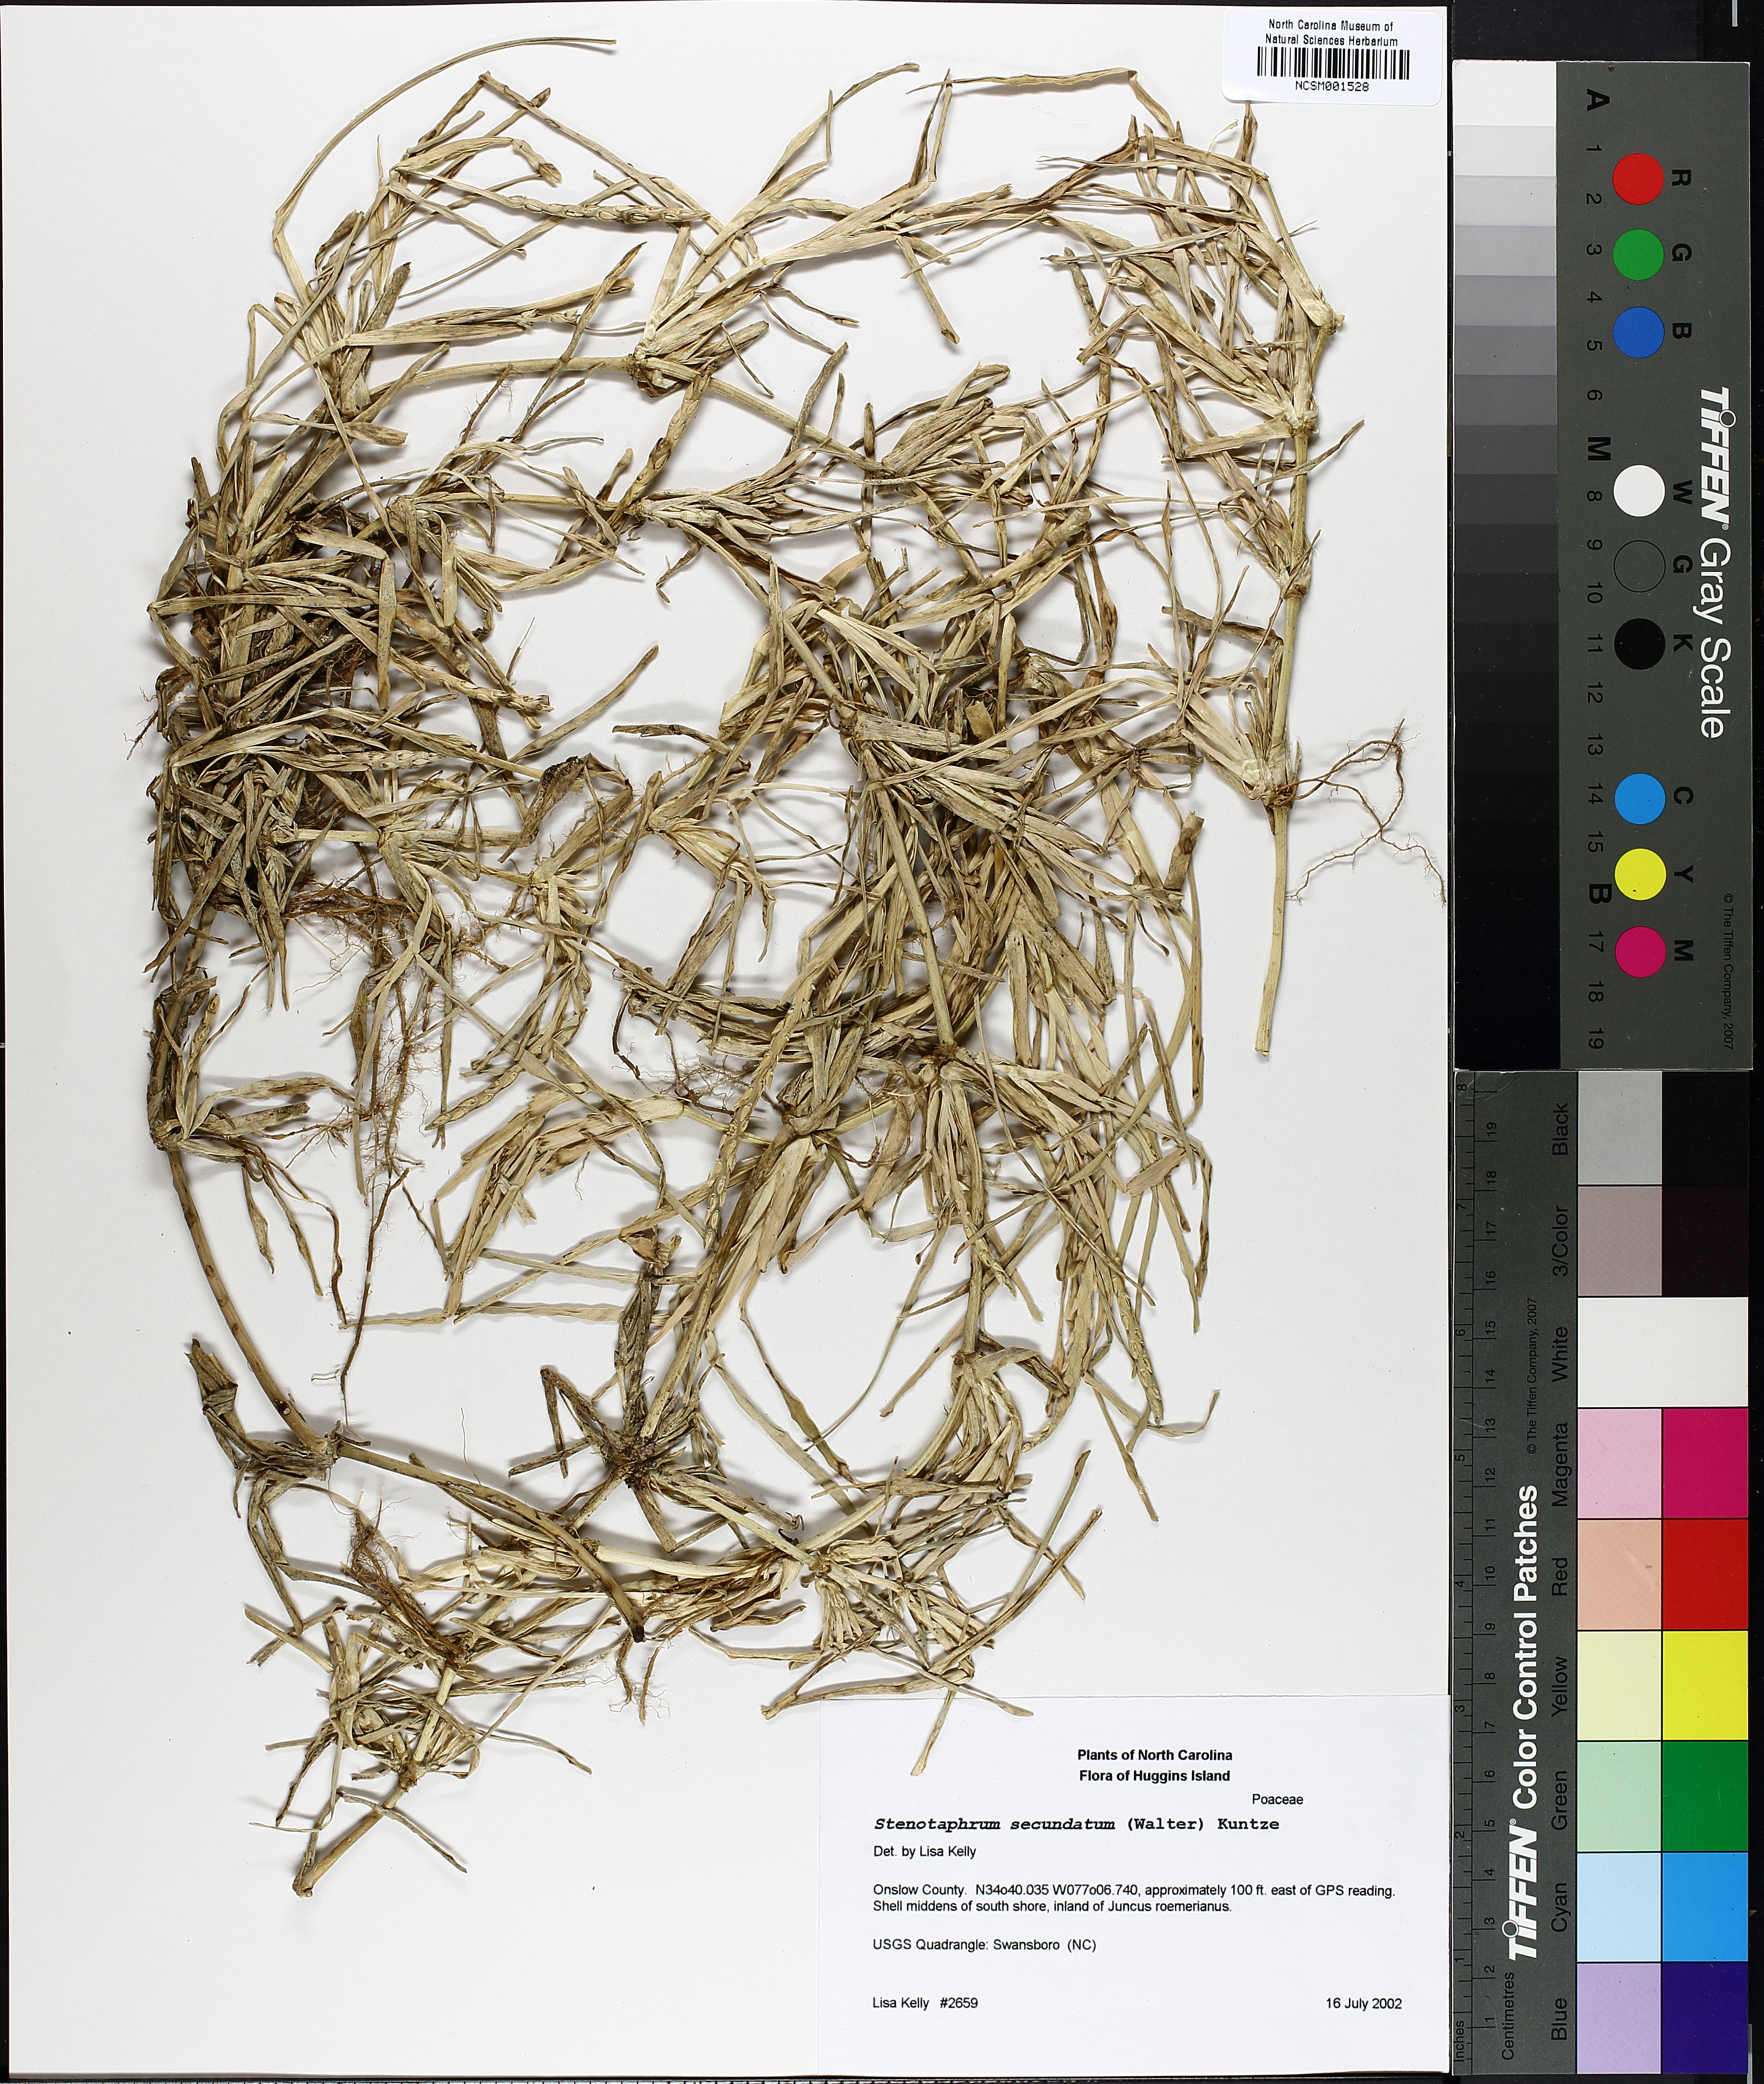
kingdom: Plantae
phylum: Tracheophyta
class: Liliopsida
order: Poales
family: Poaceae
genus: Stenotaphrum
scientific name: Stenotaphrum secundatum
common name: St. augustine grass
